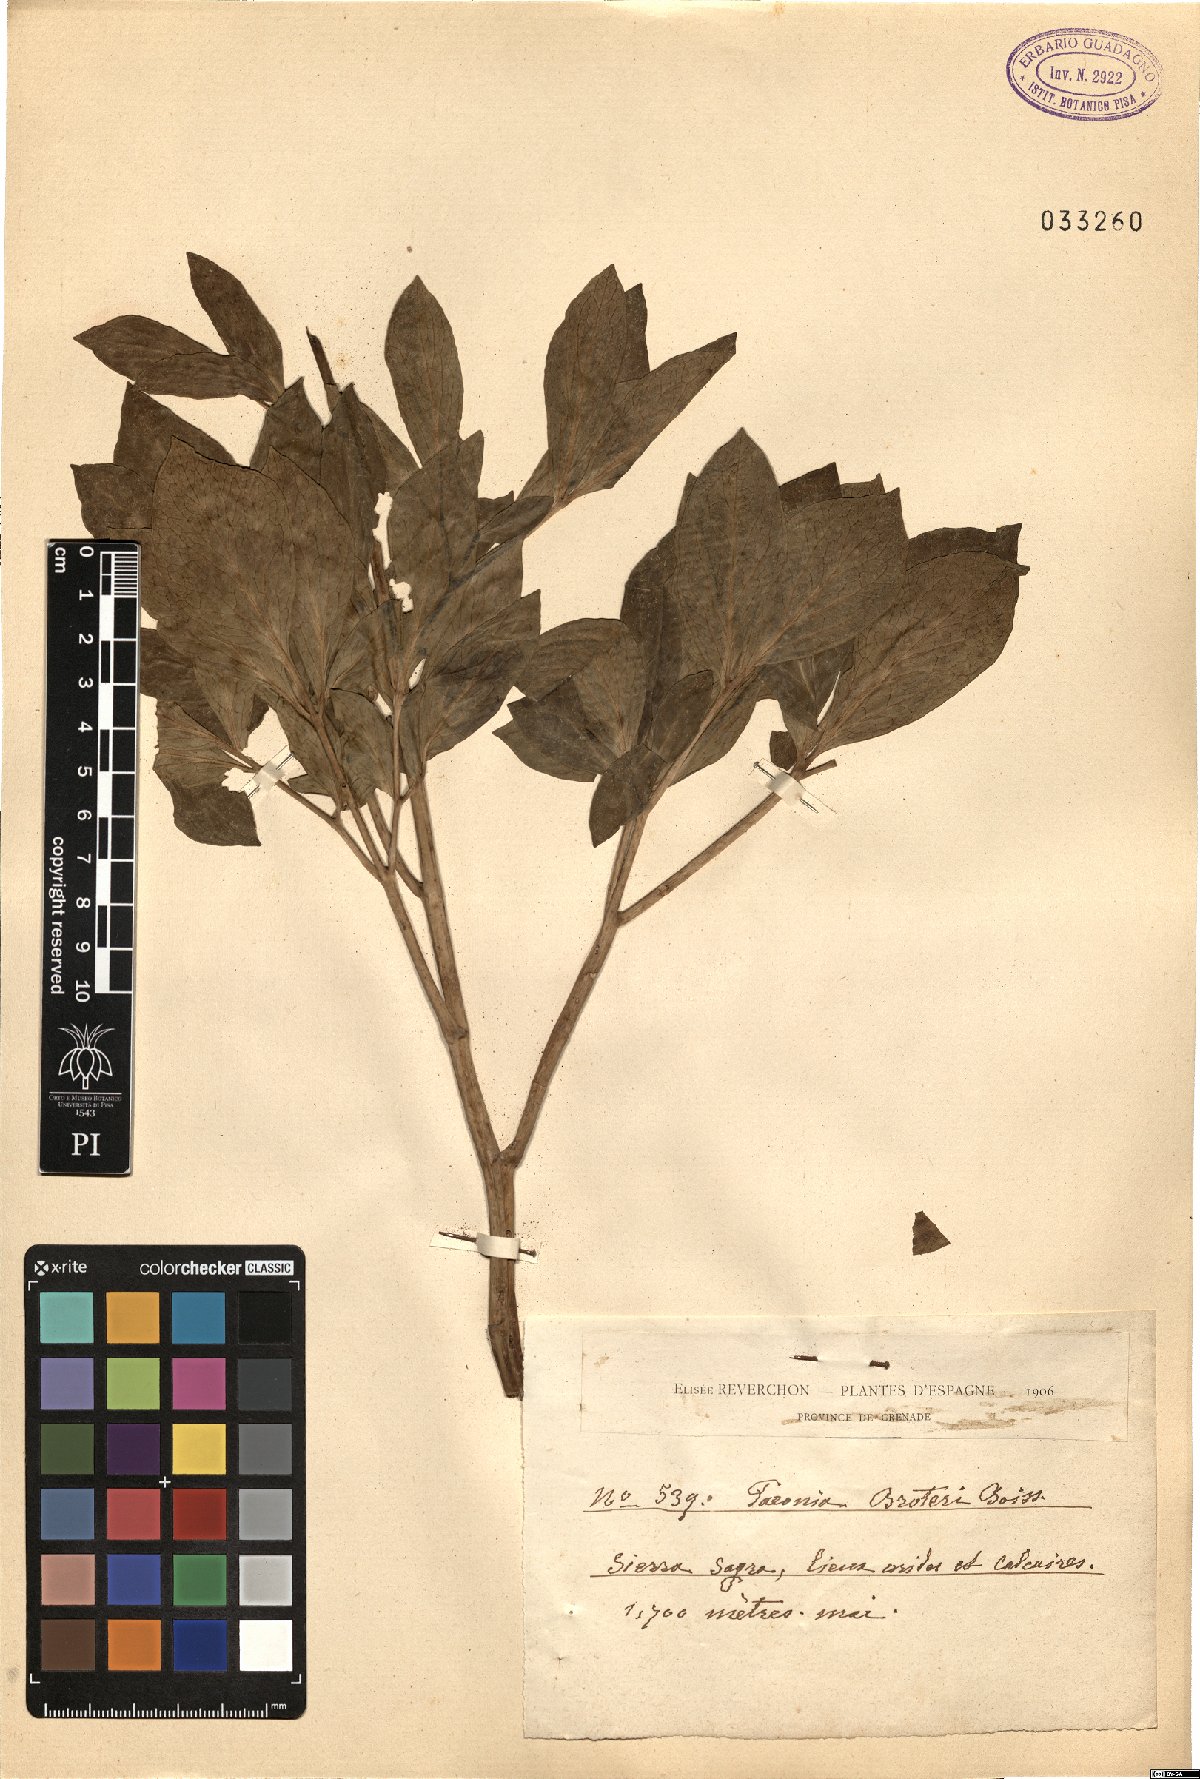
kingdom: Plantae
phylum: Tracheophyta
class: Magnoliopsida
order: Saxifragales
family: Paeoniaceae
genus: Paeonia
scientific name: Paeonia broteroi
